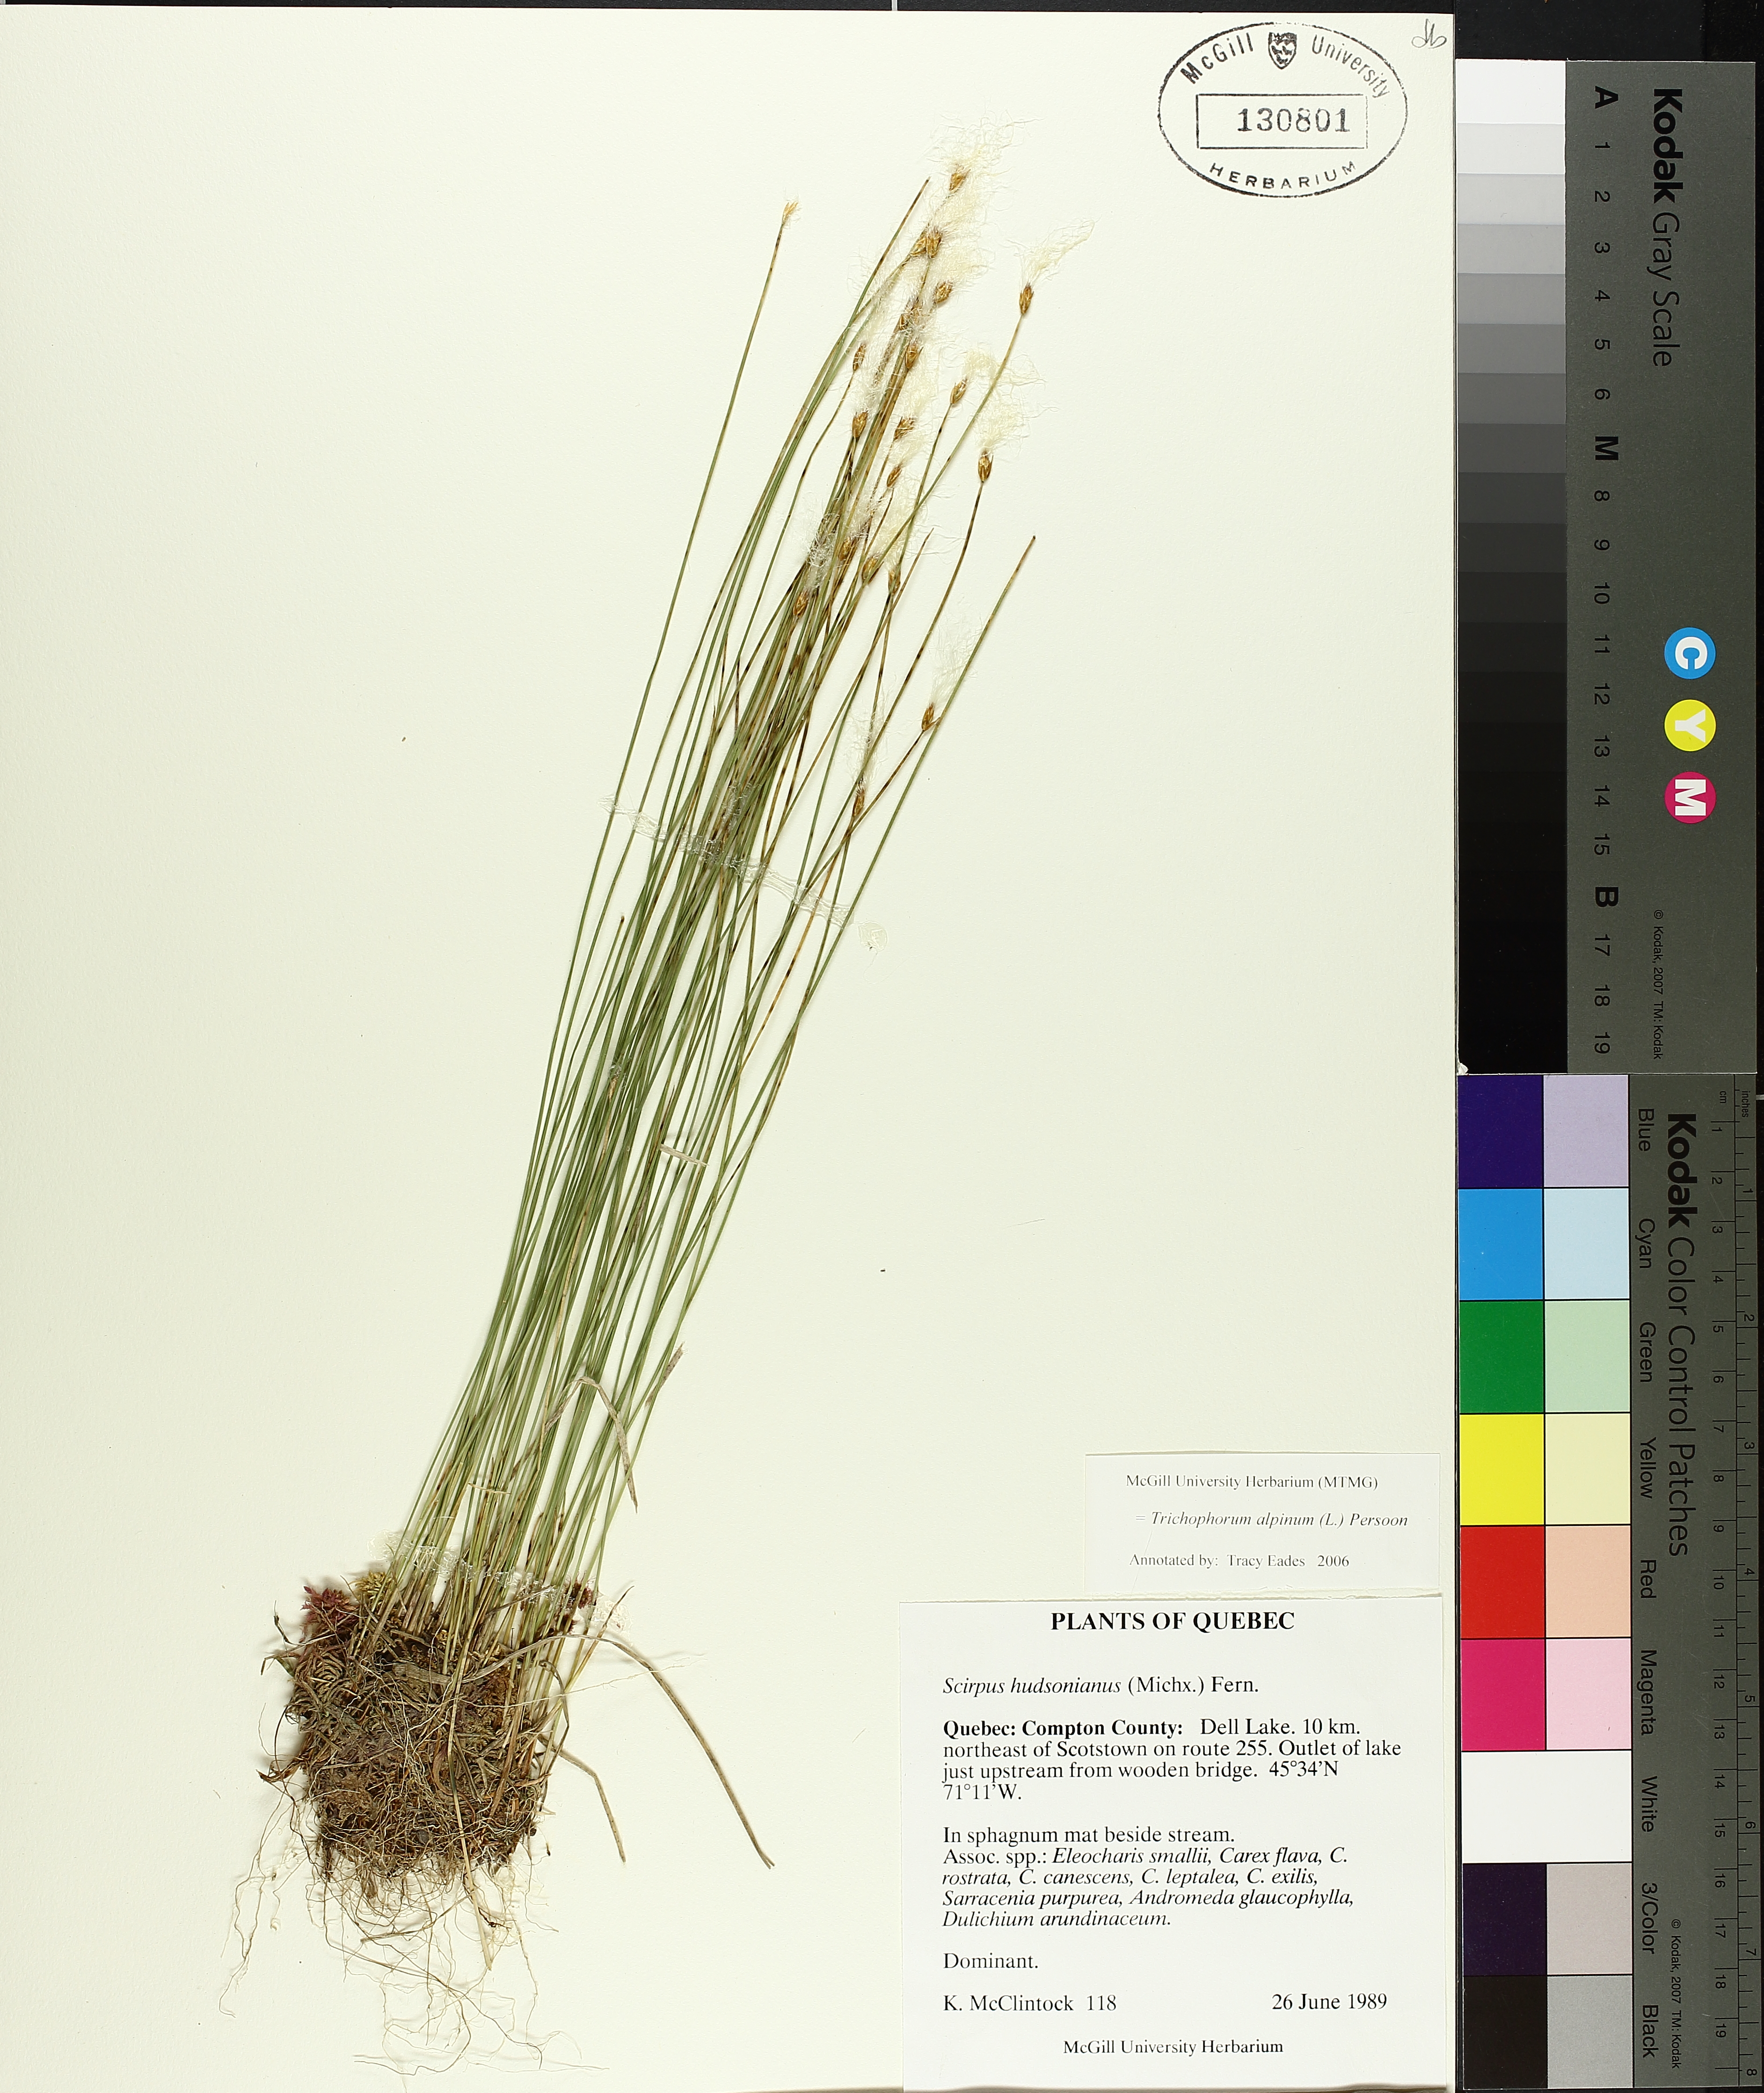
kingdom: Plantae
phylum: Tracheophyta
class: Liliopsida
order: Poales
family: Cyperaceae
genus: Trichophorum
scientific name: Trichophorum alpinum
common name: Alpine bulrush
